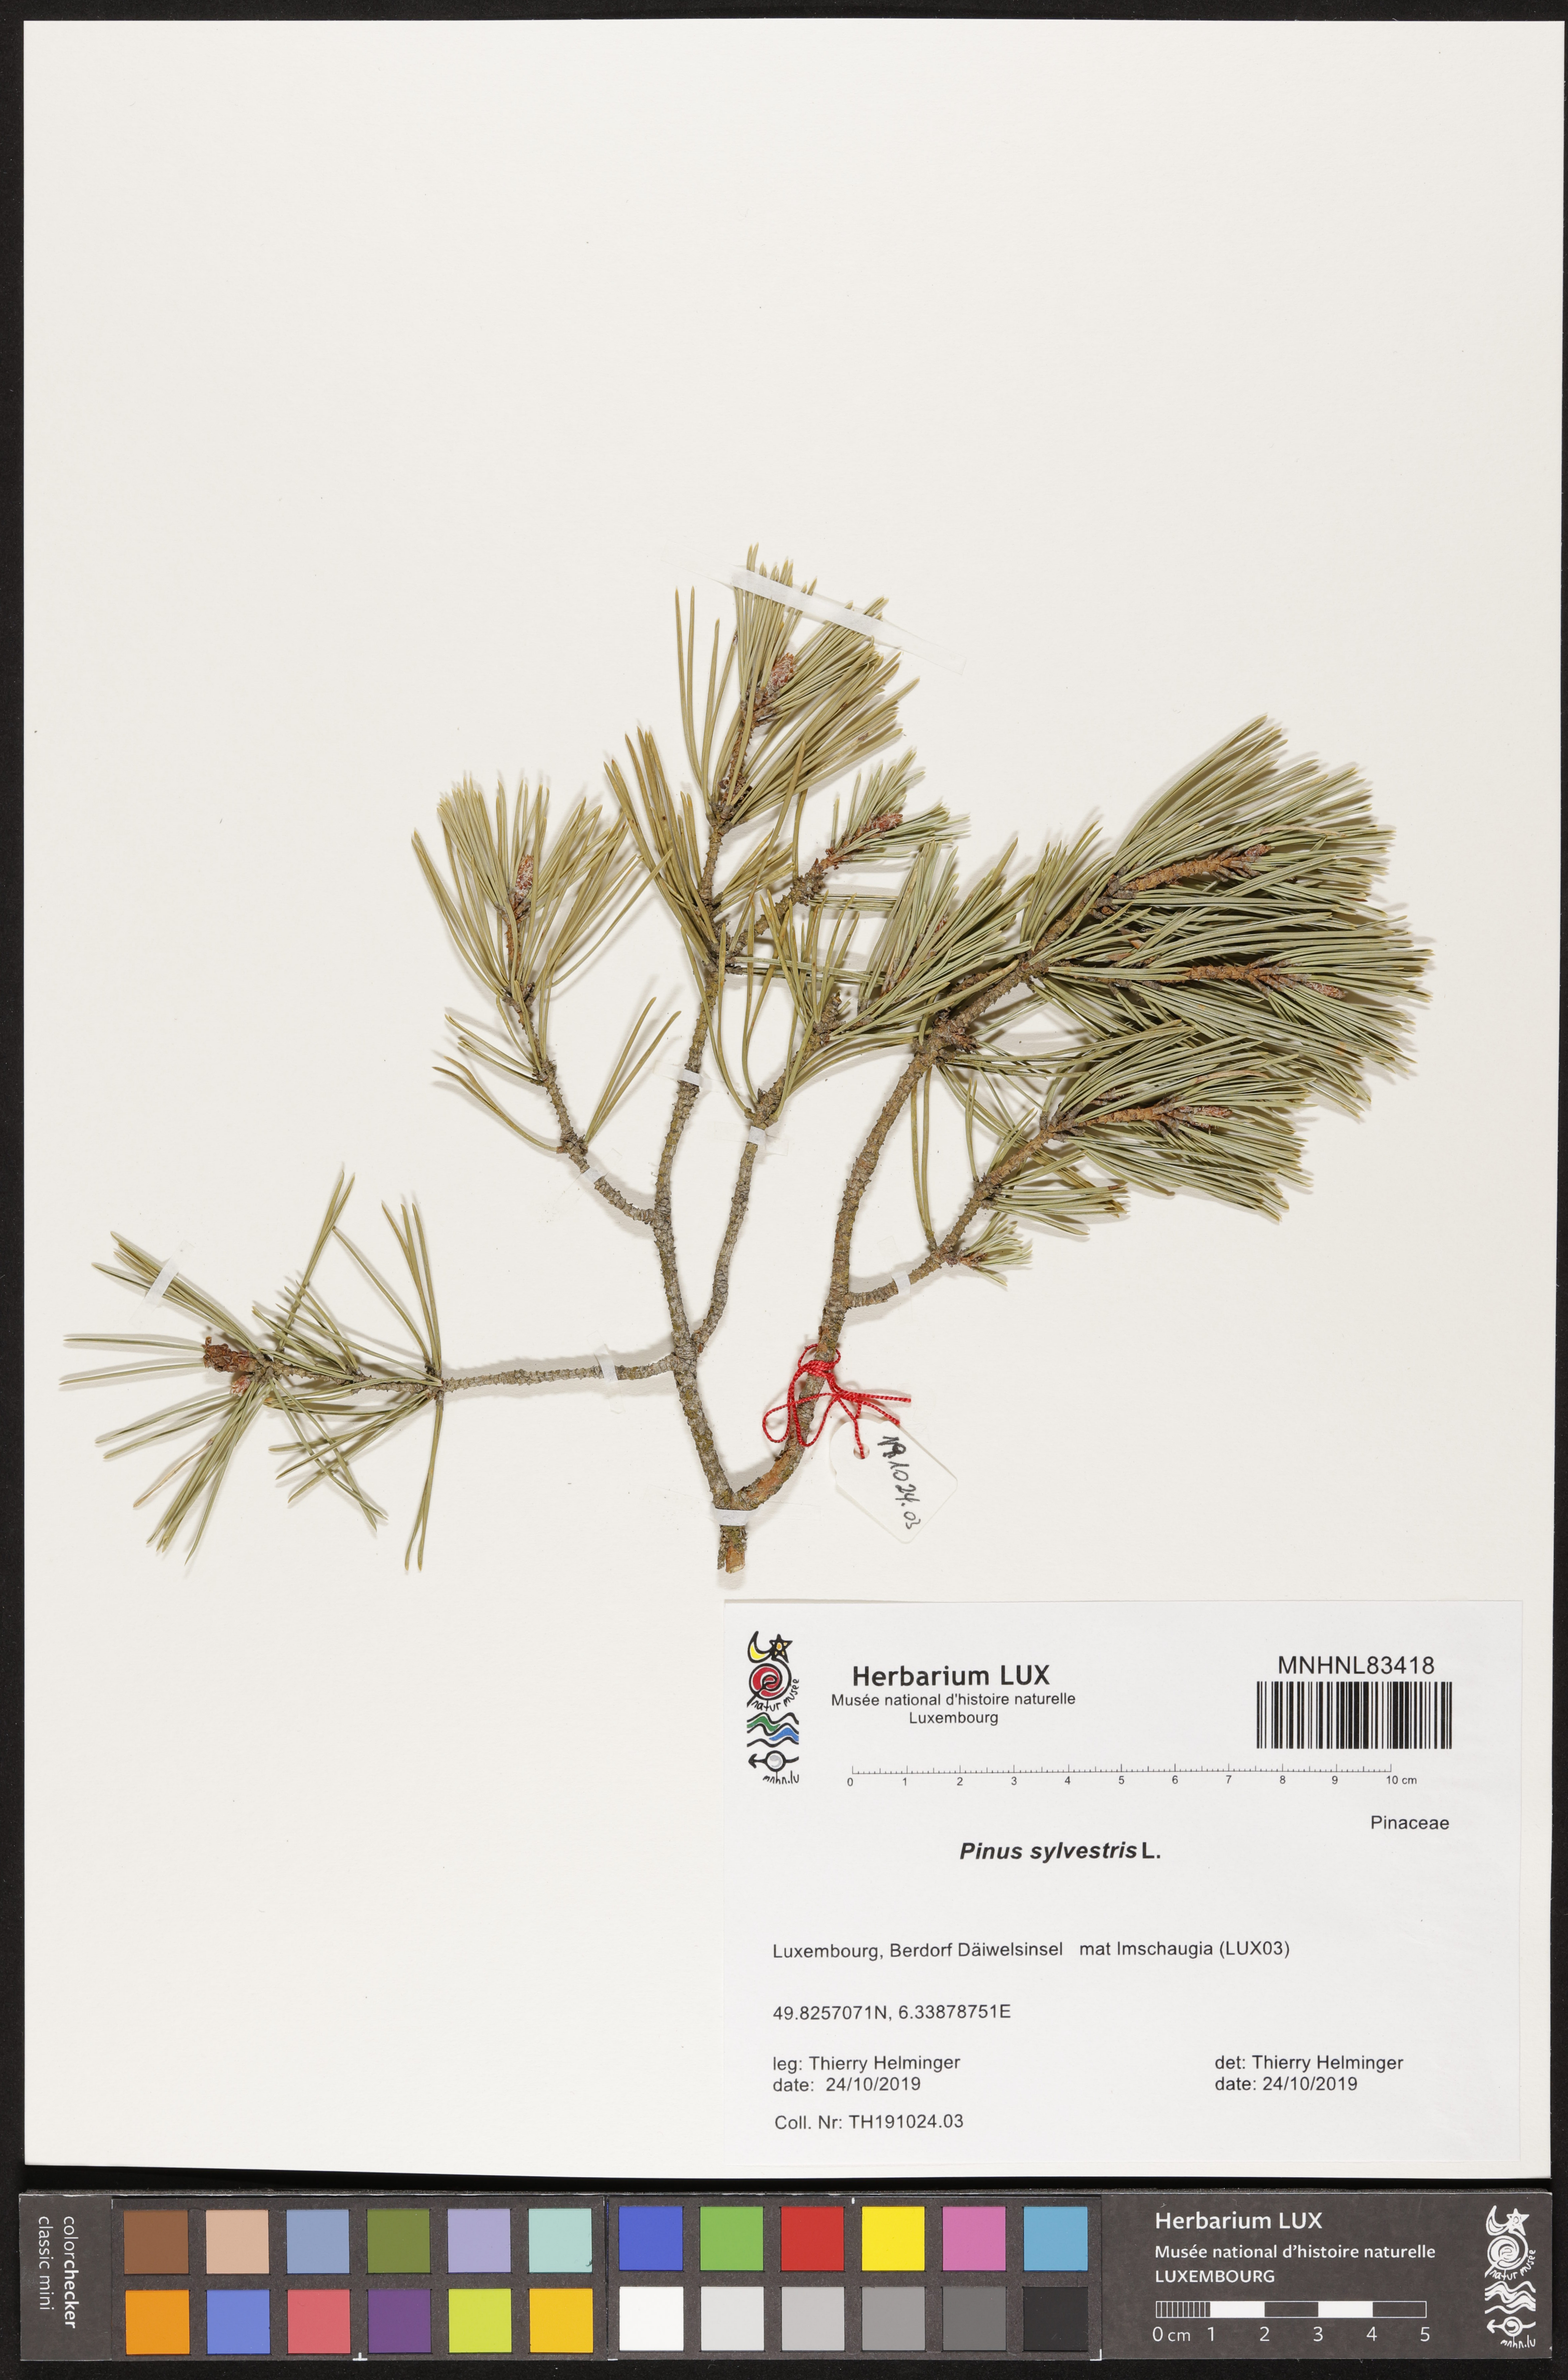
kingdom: Plantae
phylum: Tracheophyta
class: Pinopsida
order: Pinales
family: Pinaceae
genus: Pinus
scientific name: Pinus sylvestris
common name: Scots pine
